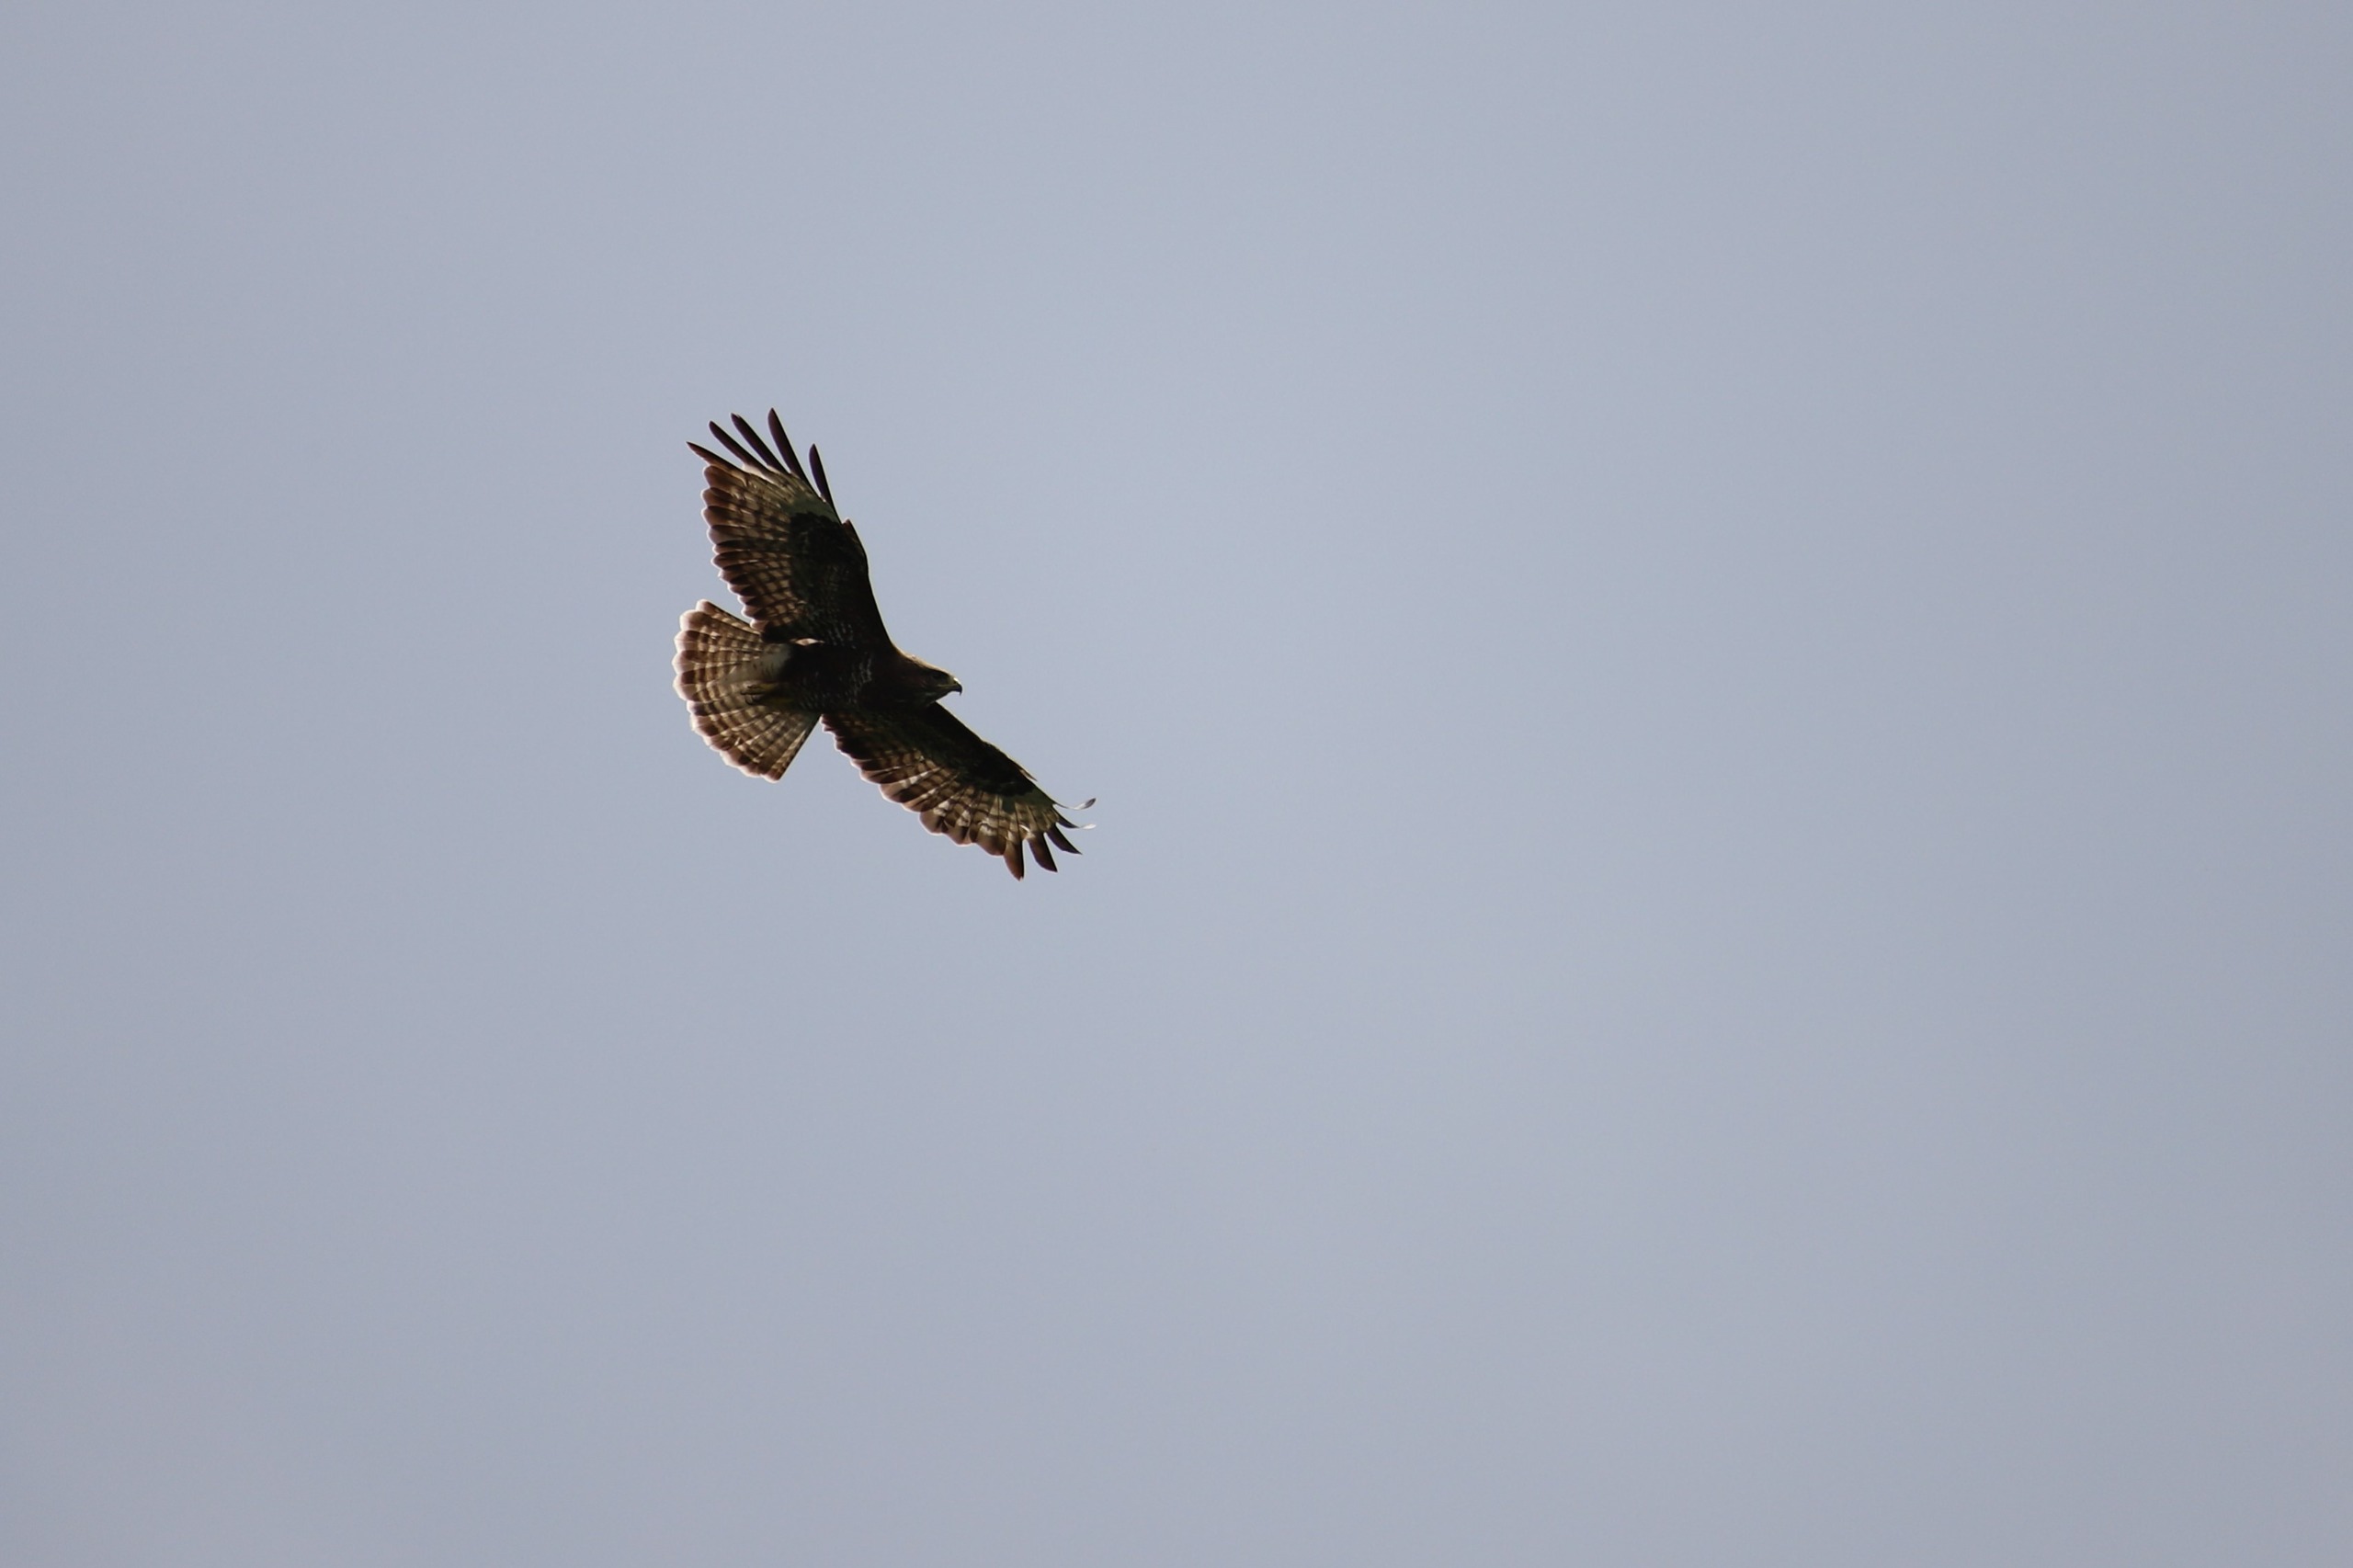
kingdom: Animalia
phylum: Chordata
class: Aves
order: Accipitriformes
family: Accipitridae
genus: Buteo
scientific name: Buteo buteo
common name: Musvåge
